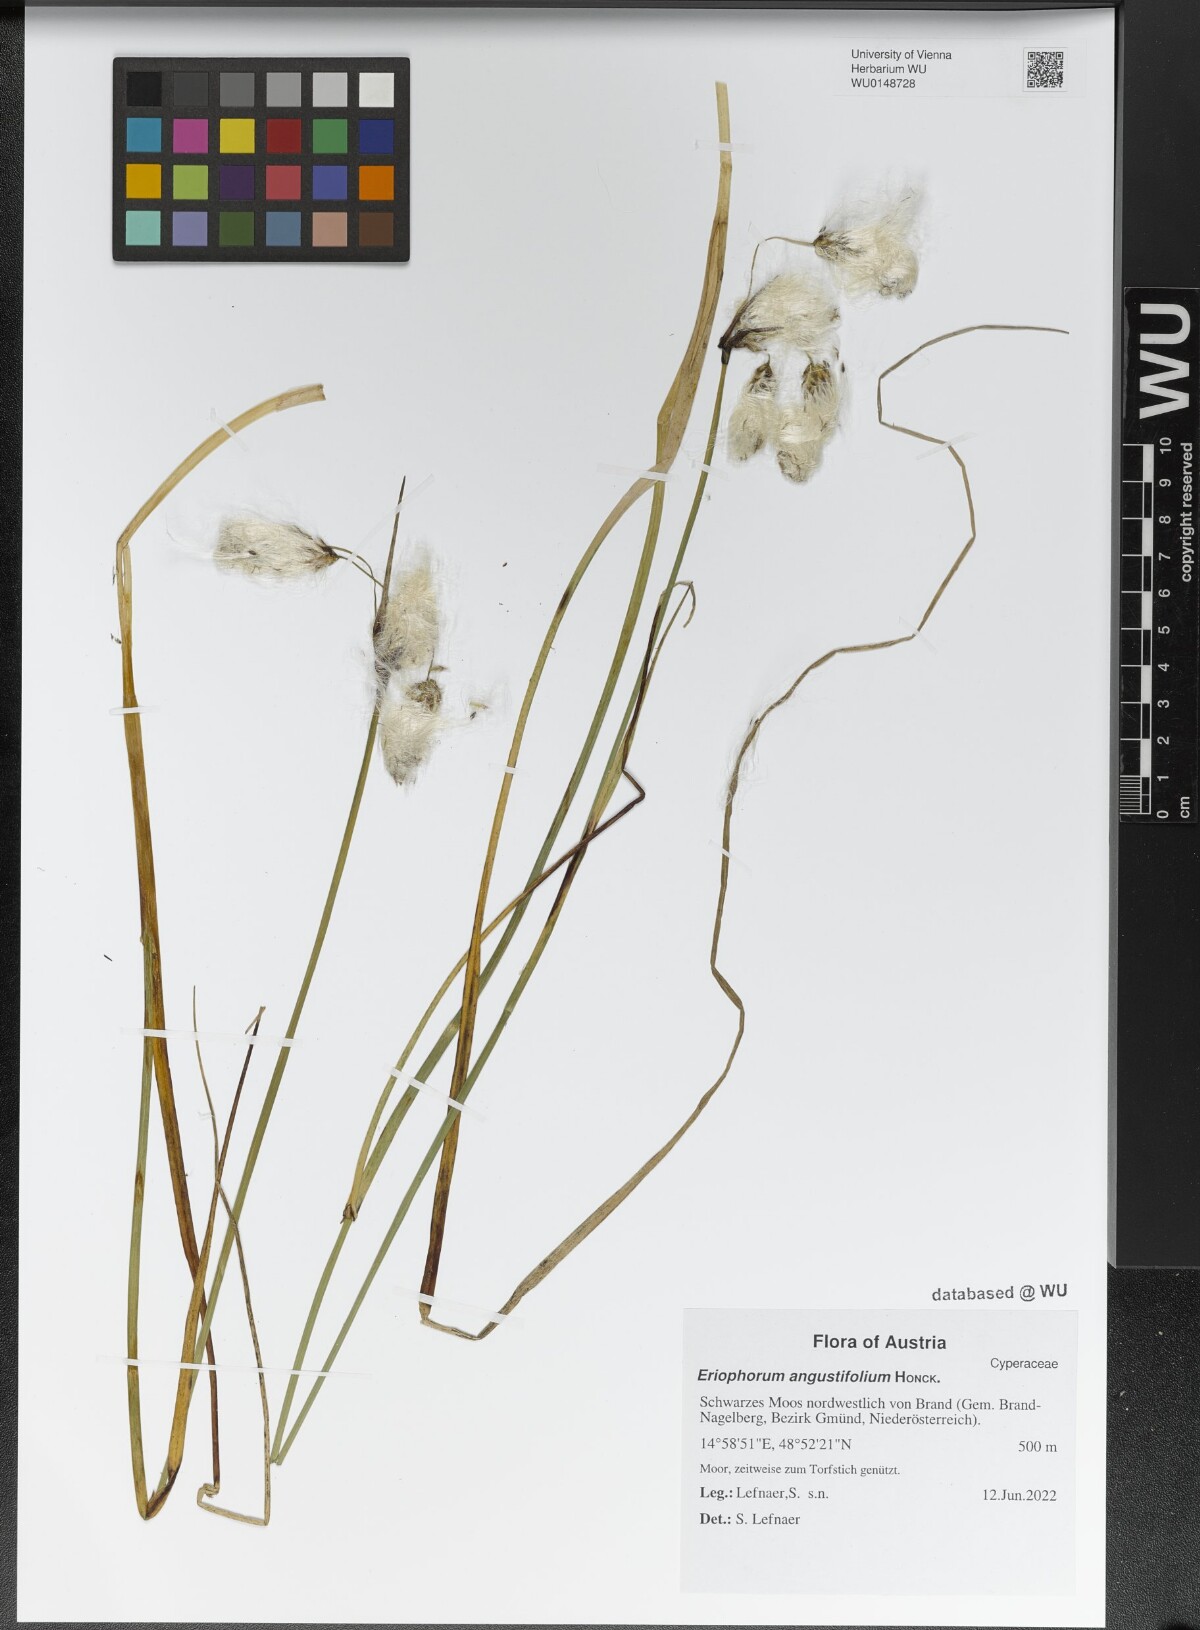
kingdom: Plantae
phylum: Tracheophyta
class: Liliopsida
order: Poales
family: Cyperaceae
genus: Eriophorum
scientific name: Eriophorum angustifolium
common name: Common cottongrass
